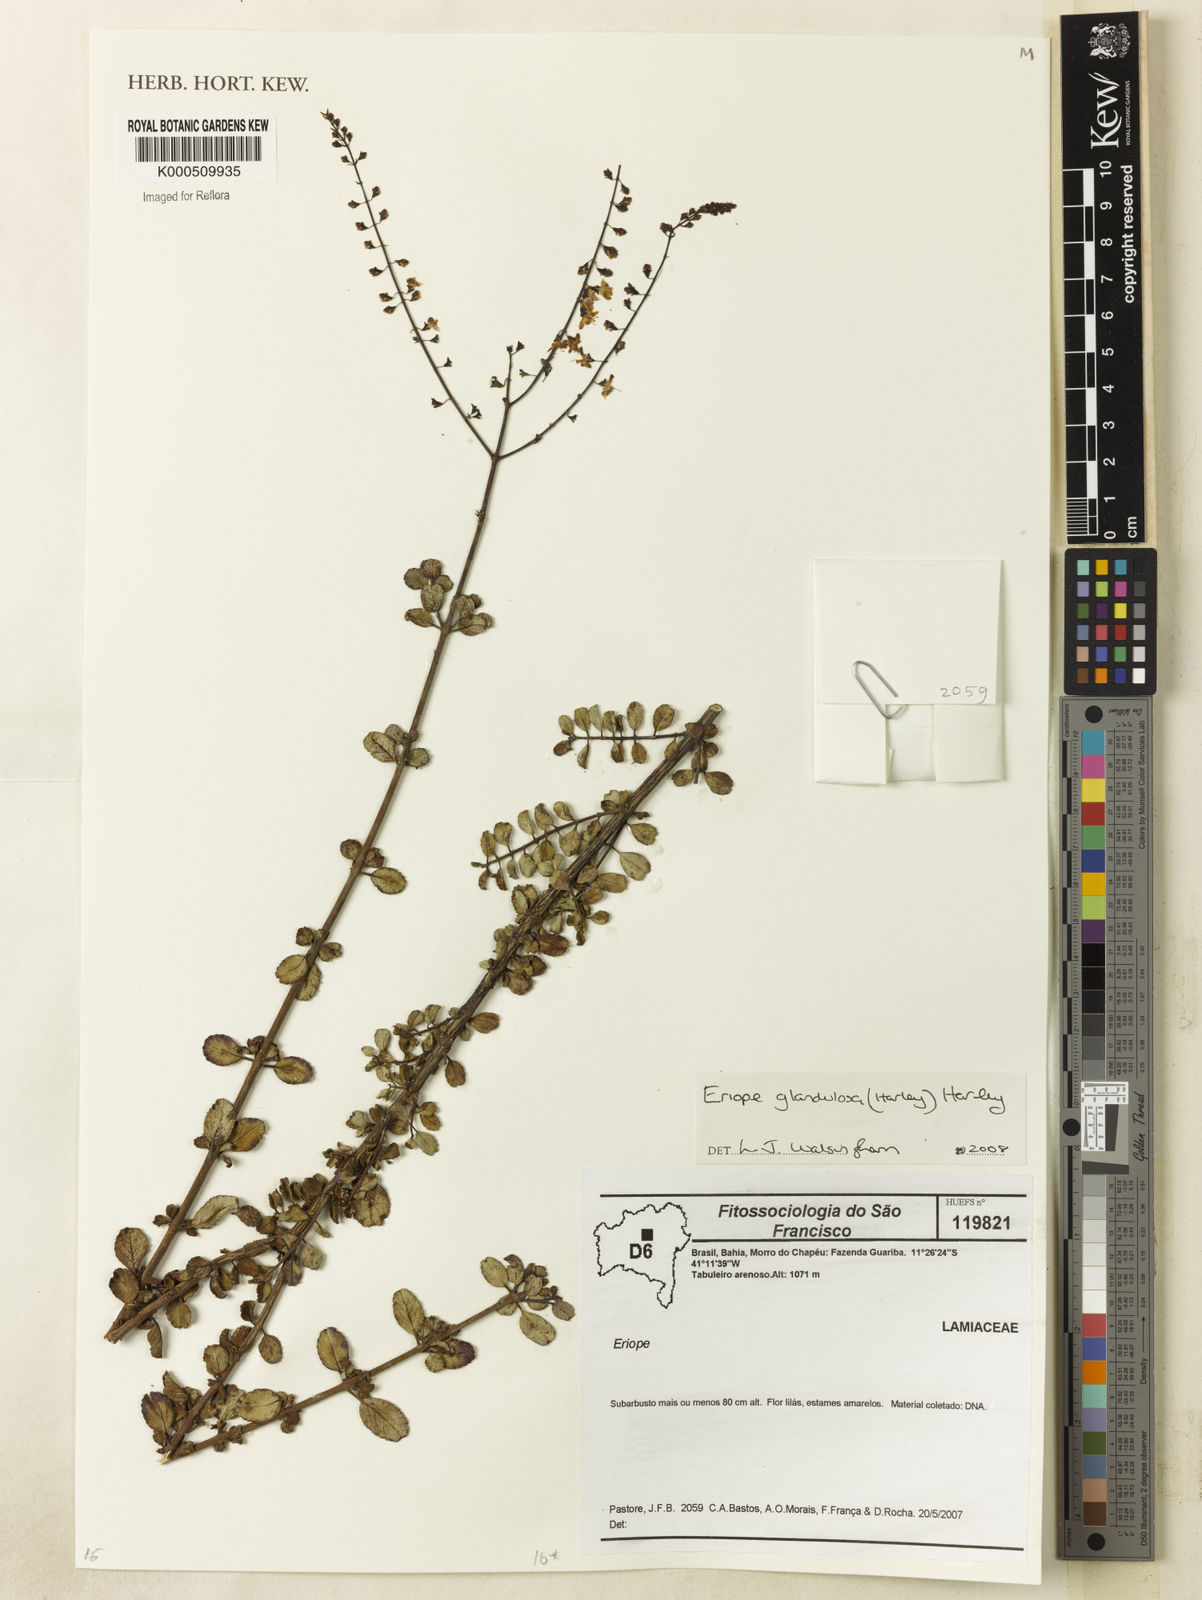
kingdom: Plantae
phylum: Tracheophyta
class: Magnoliopsida
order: Lamiales
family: Lamiaceae
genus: Eriope
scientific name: Eriope glandulosa
